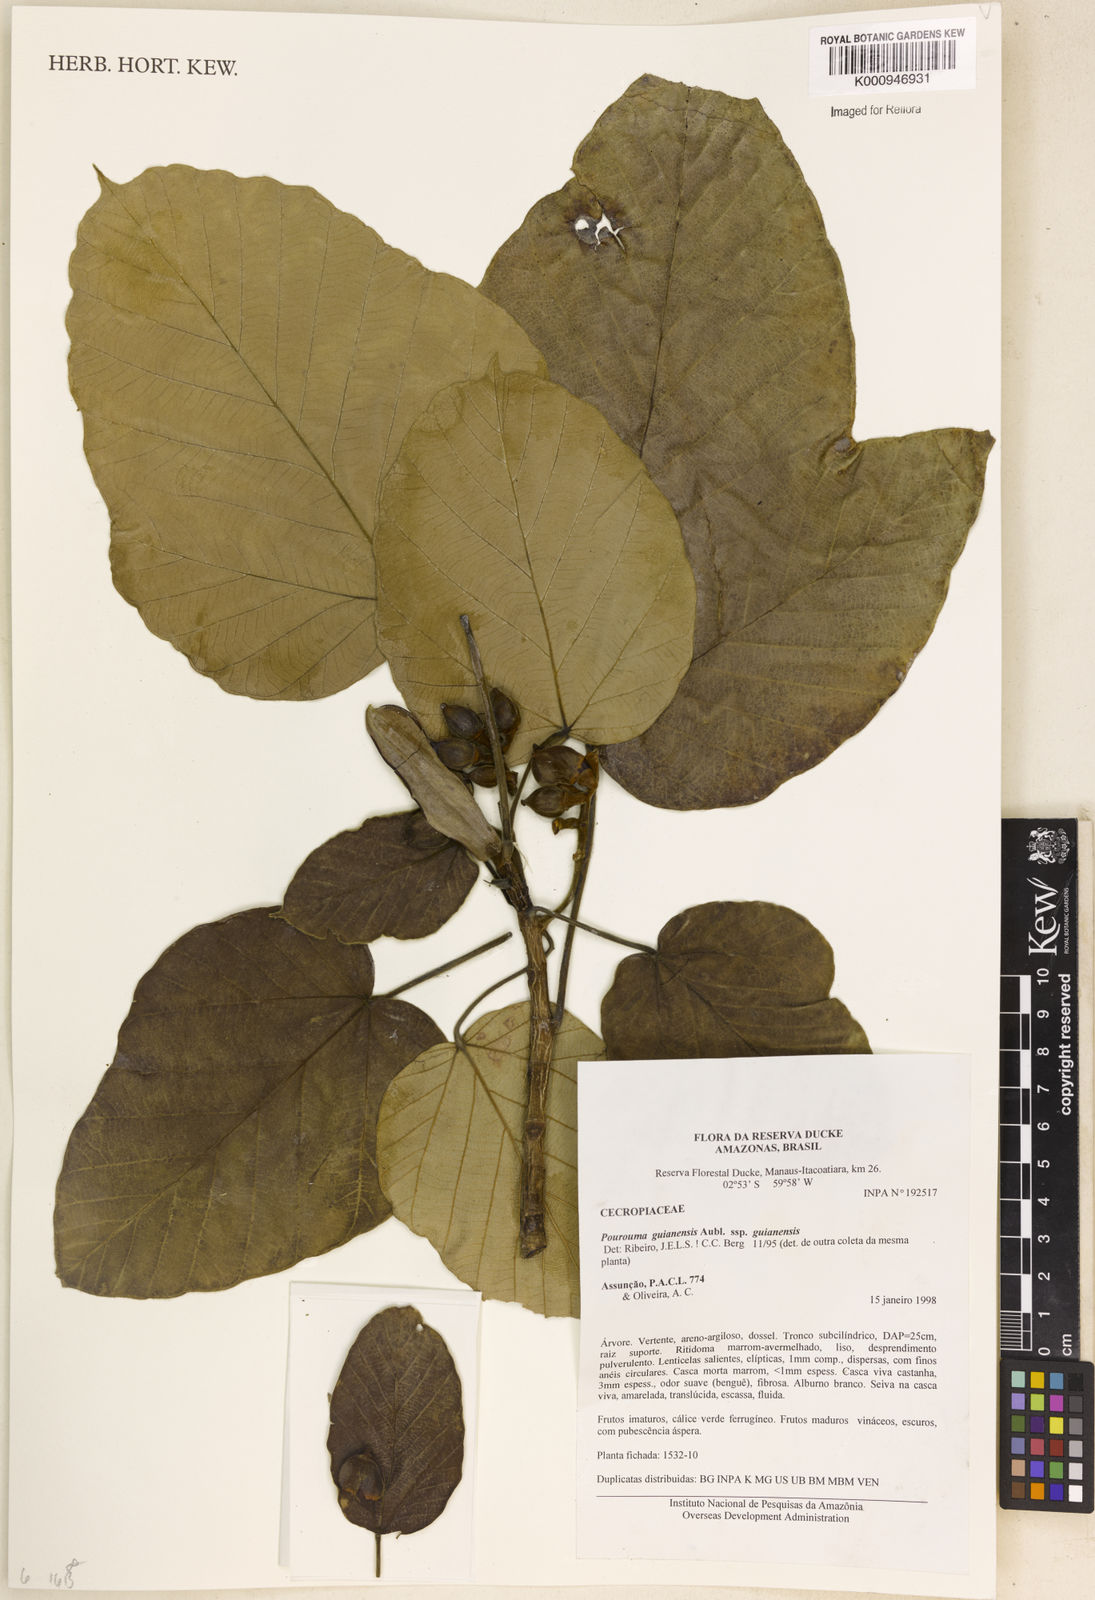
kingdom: Plantae
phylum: Tracheophyta
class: Magnoliopsida
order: Rosales
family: Urticaceae
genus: Pourouma
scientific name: Pourouma guianensis
